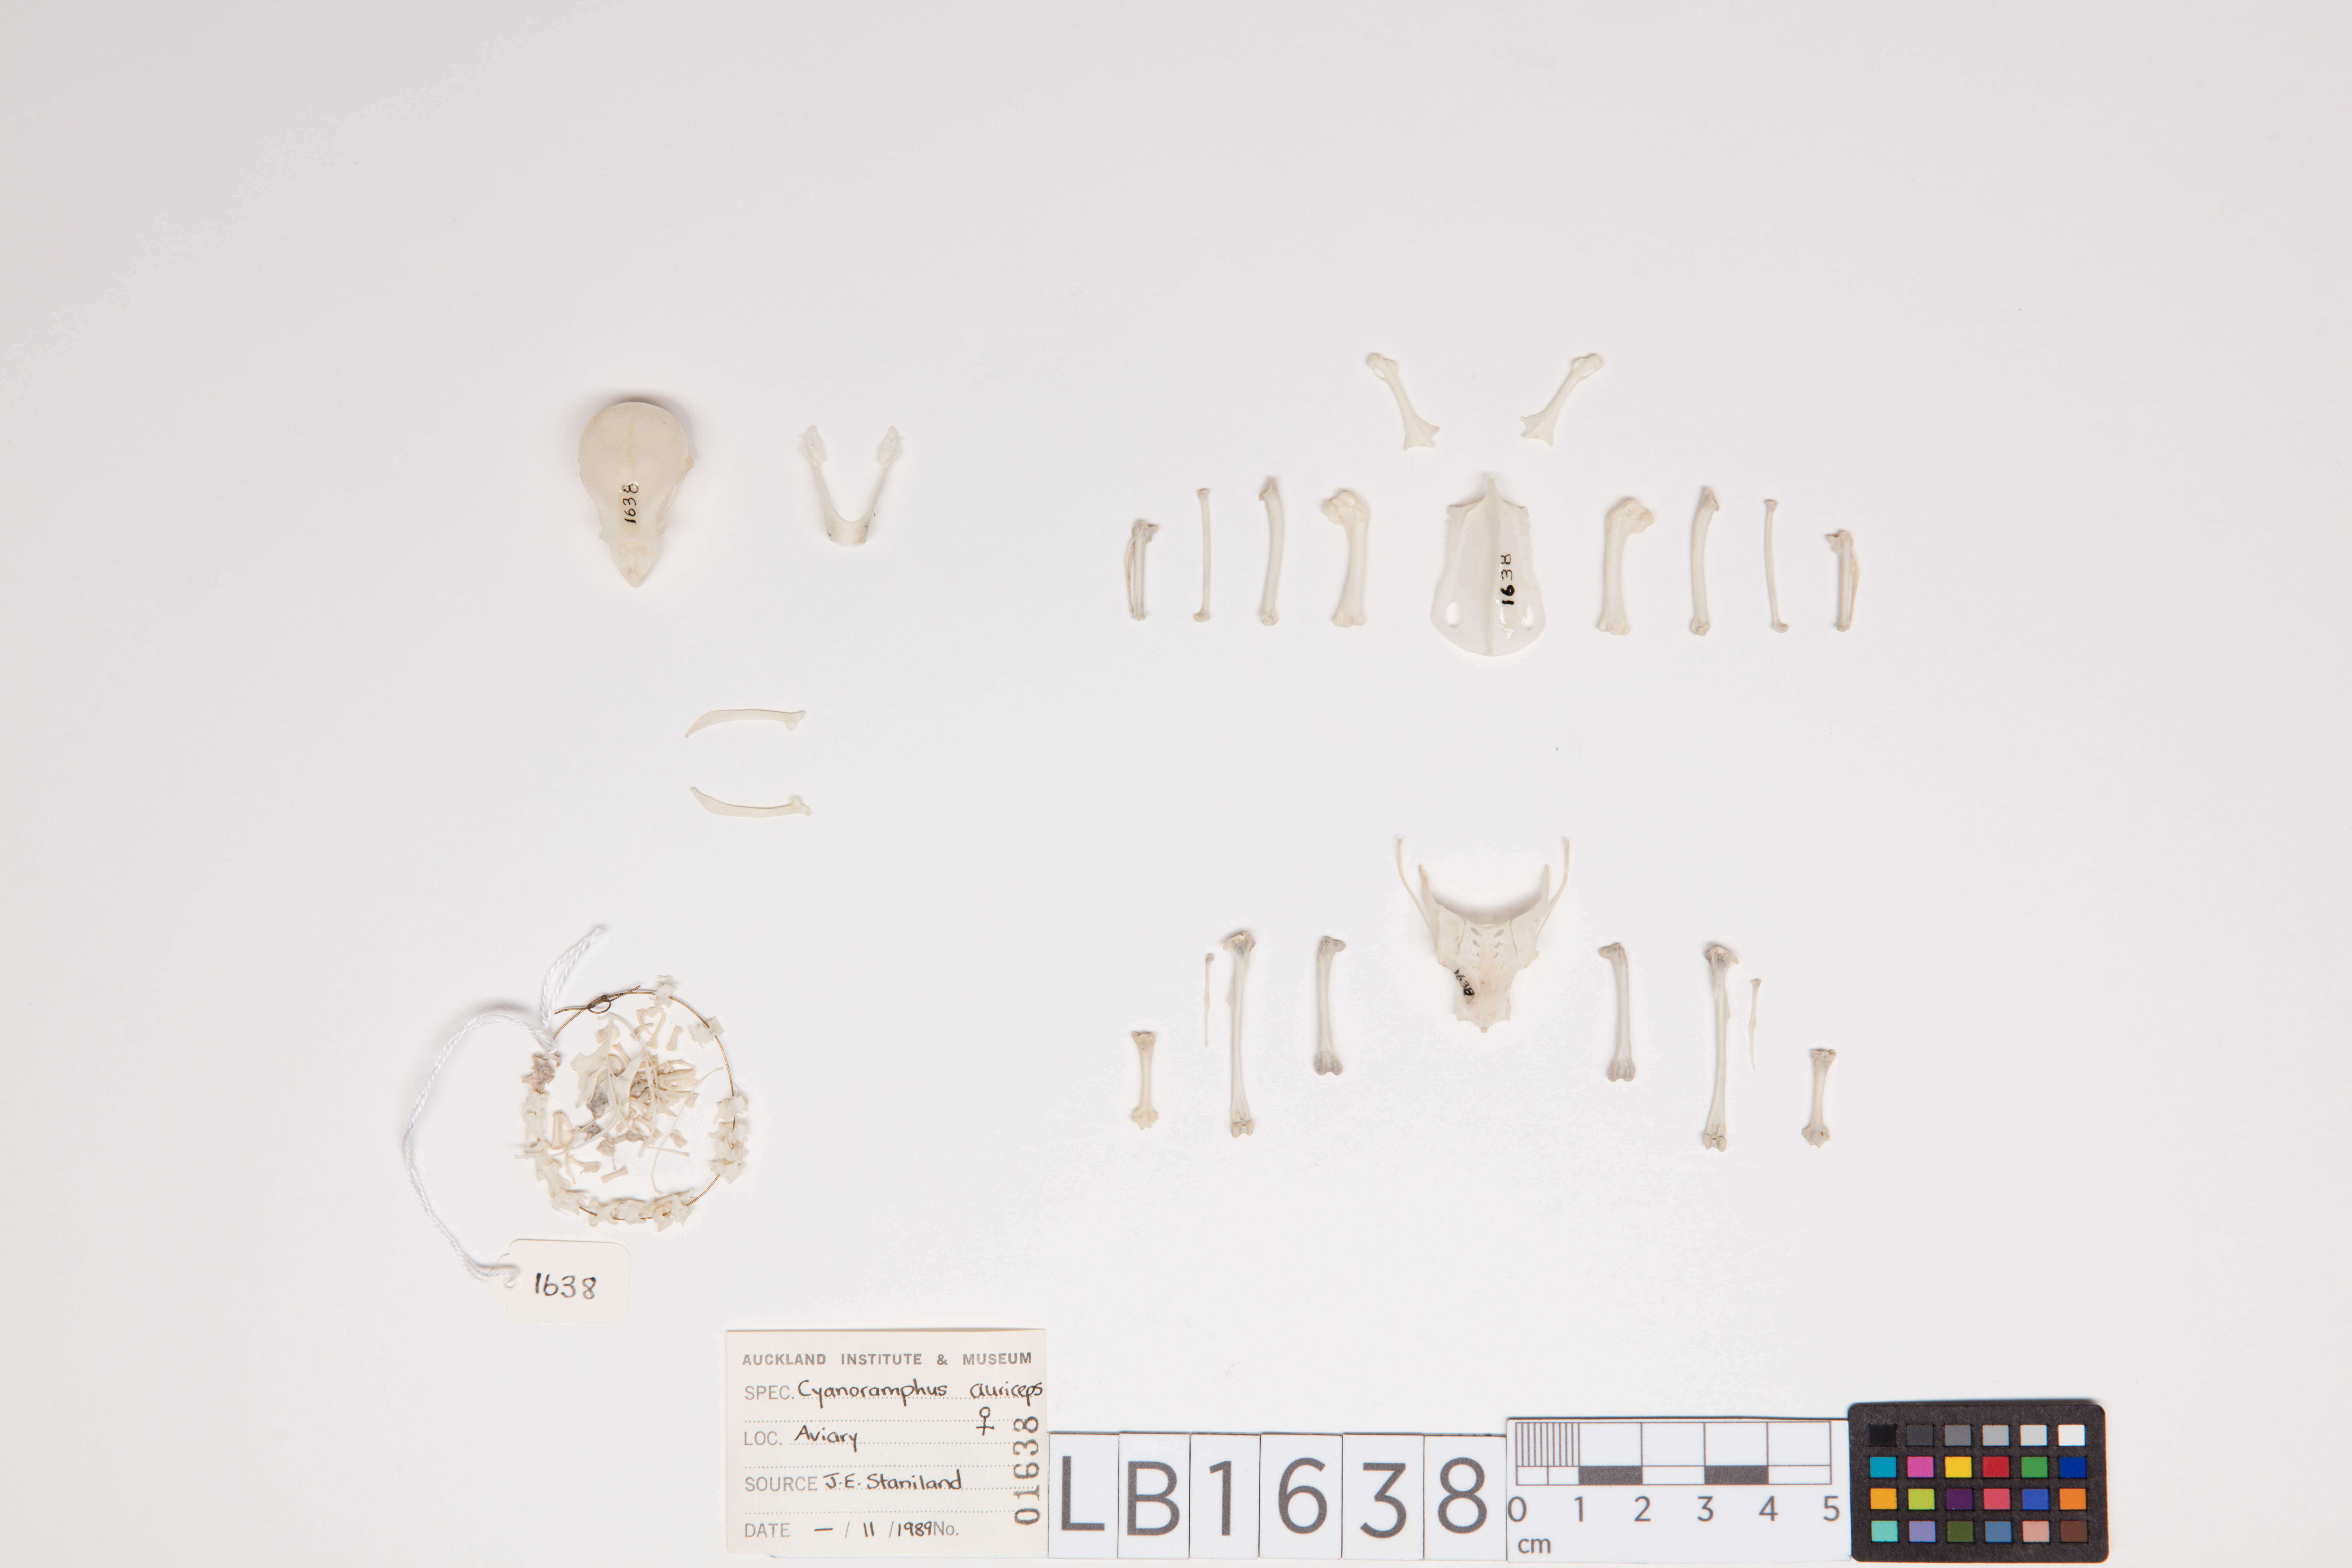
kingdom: Animalia
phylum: Chordata
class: Aves
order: Psittaciformes
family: Psittacidae
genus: Cyanoramphus
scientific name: Cyanoramphus auriceps
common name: Yellow-crowned parakeet
